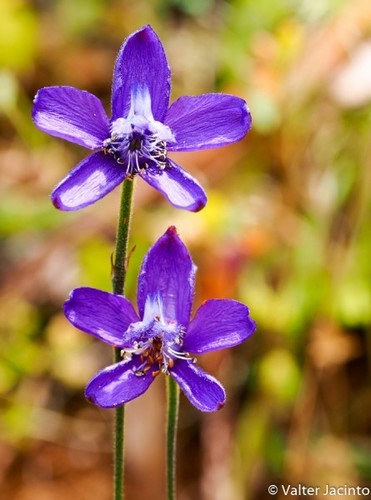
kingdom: Plantae
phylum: Tracheophyta
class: Magnoliopsida
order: Ranunculales
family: Ranunculaceae
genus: Delphinium
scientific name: Delphinium pentagynum
